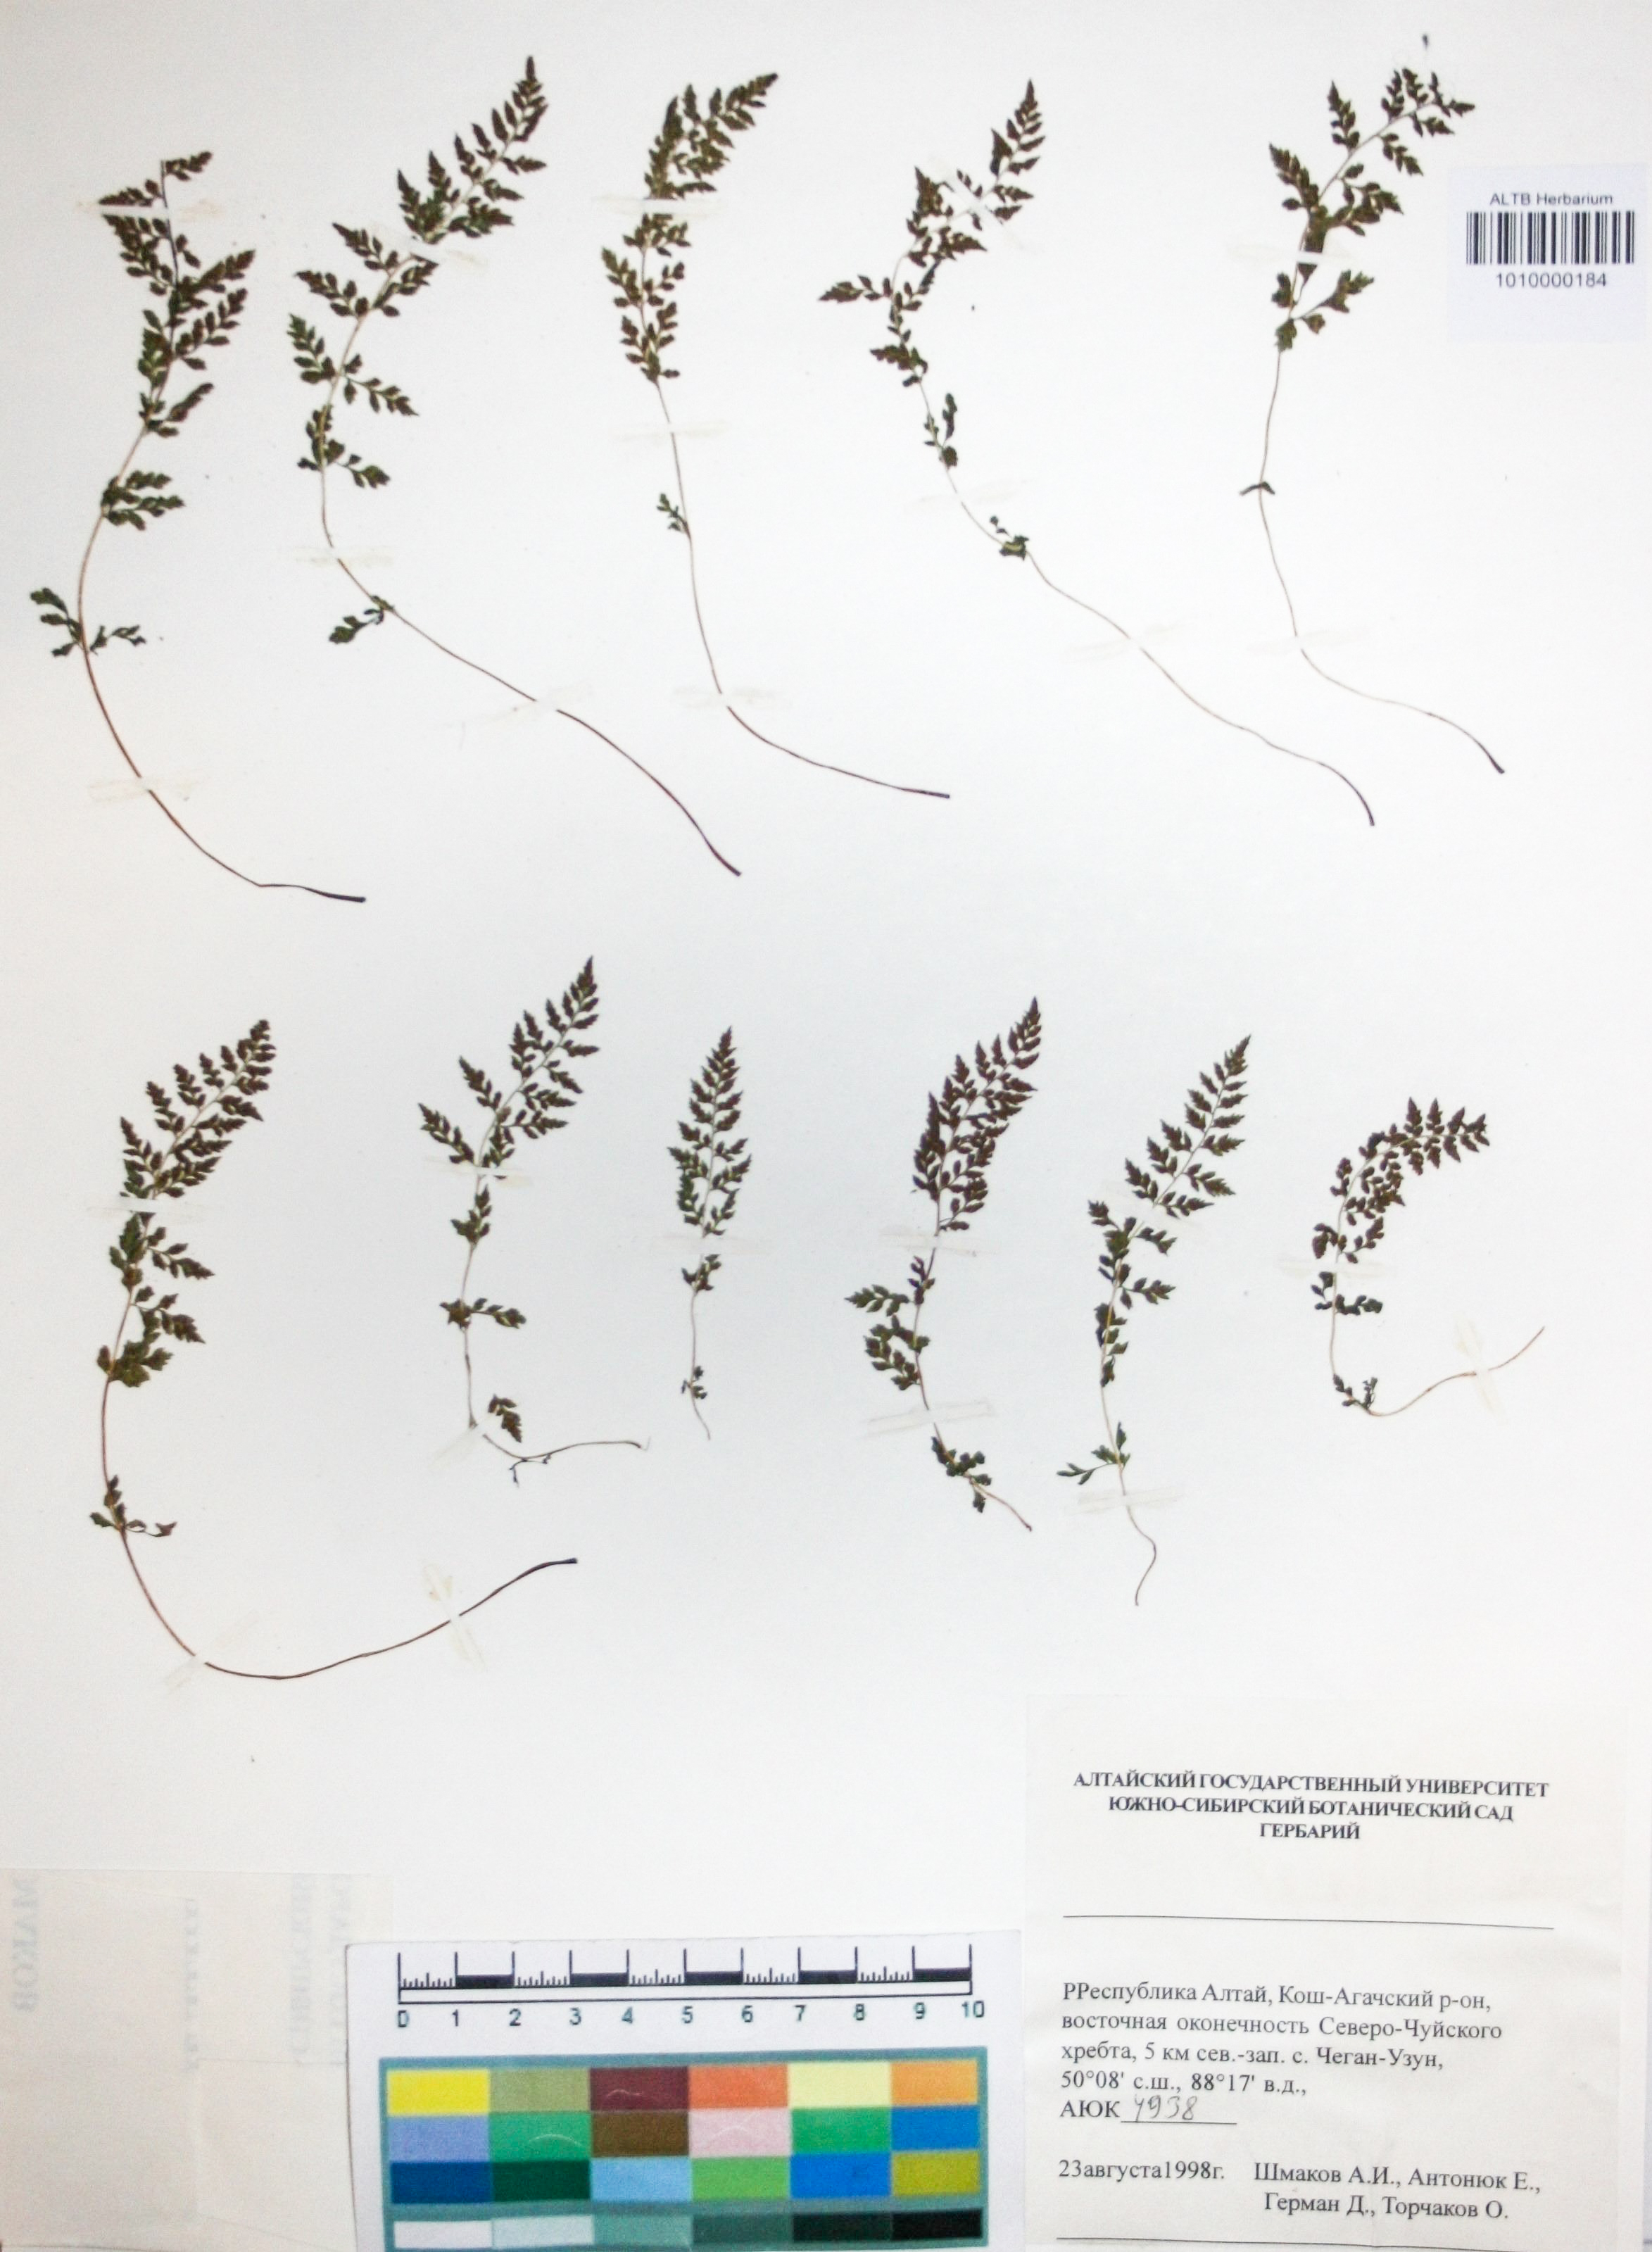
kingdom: Plantae
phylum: Tracheophyta
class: Polypodiopsida
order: Polypodiales
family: Cystopteridaceae
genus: Cystopteris
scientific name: Cystopteris fragilis
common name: Brittle bladder fern
